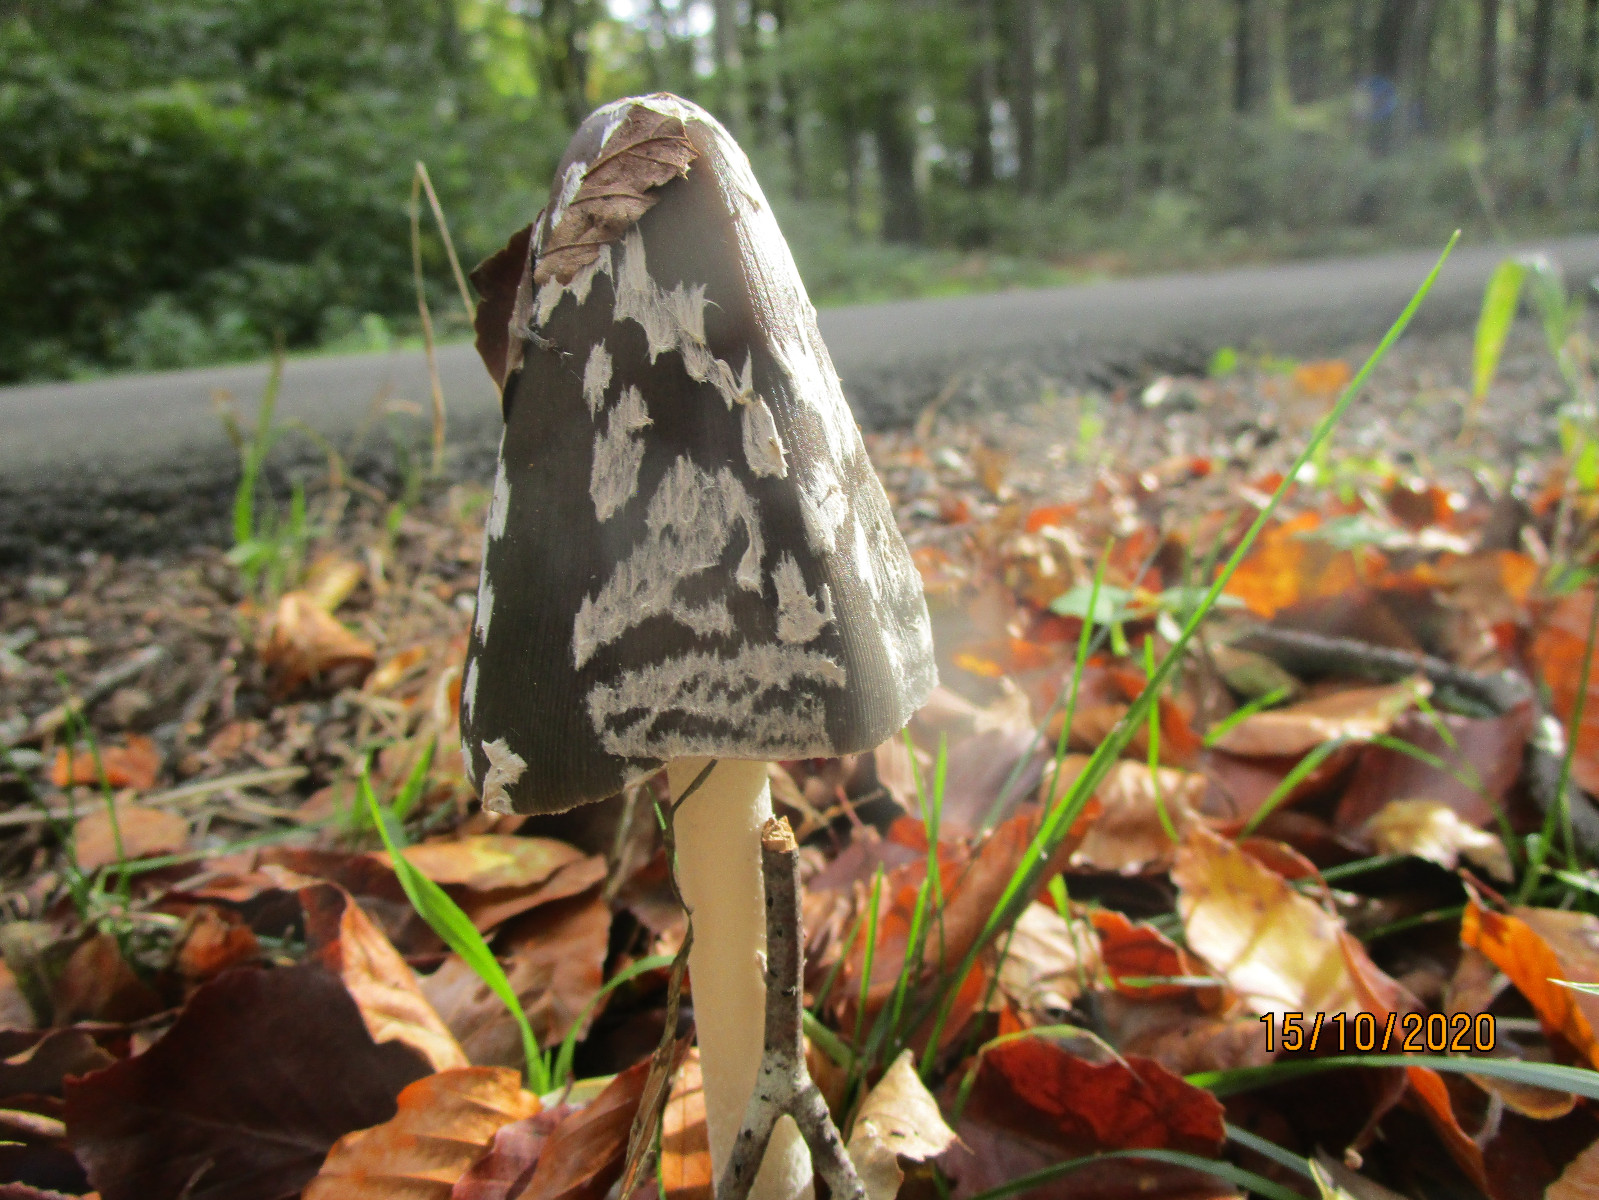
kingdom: Fungi
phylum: Basidiomycota
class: Agaricomycetes
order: Agaricales
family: Psathyrellaceae
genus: Coprinopsis
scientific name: Coprinopsis picacea
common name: skade-blækhat
